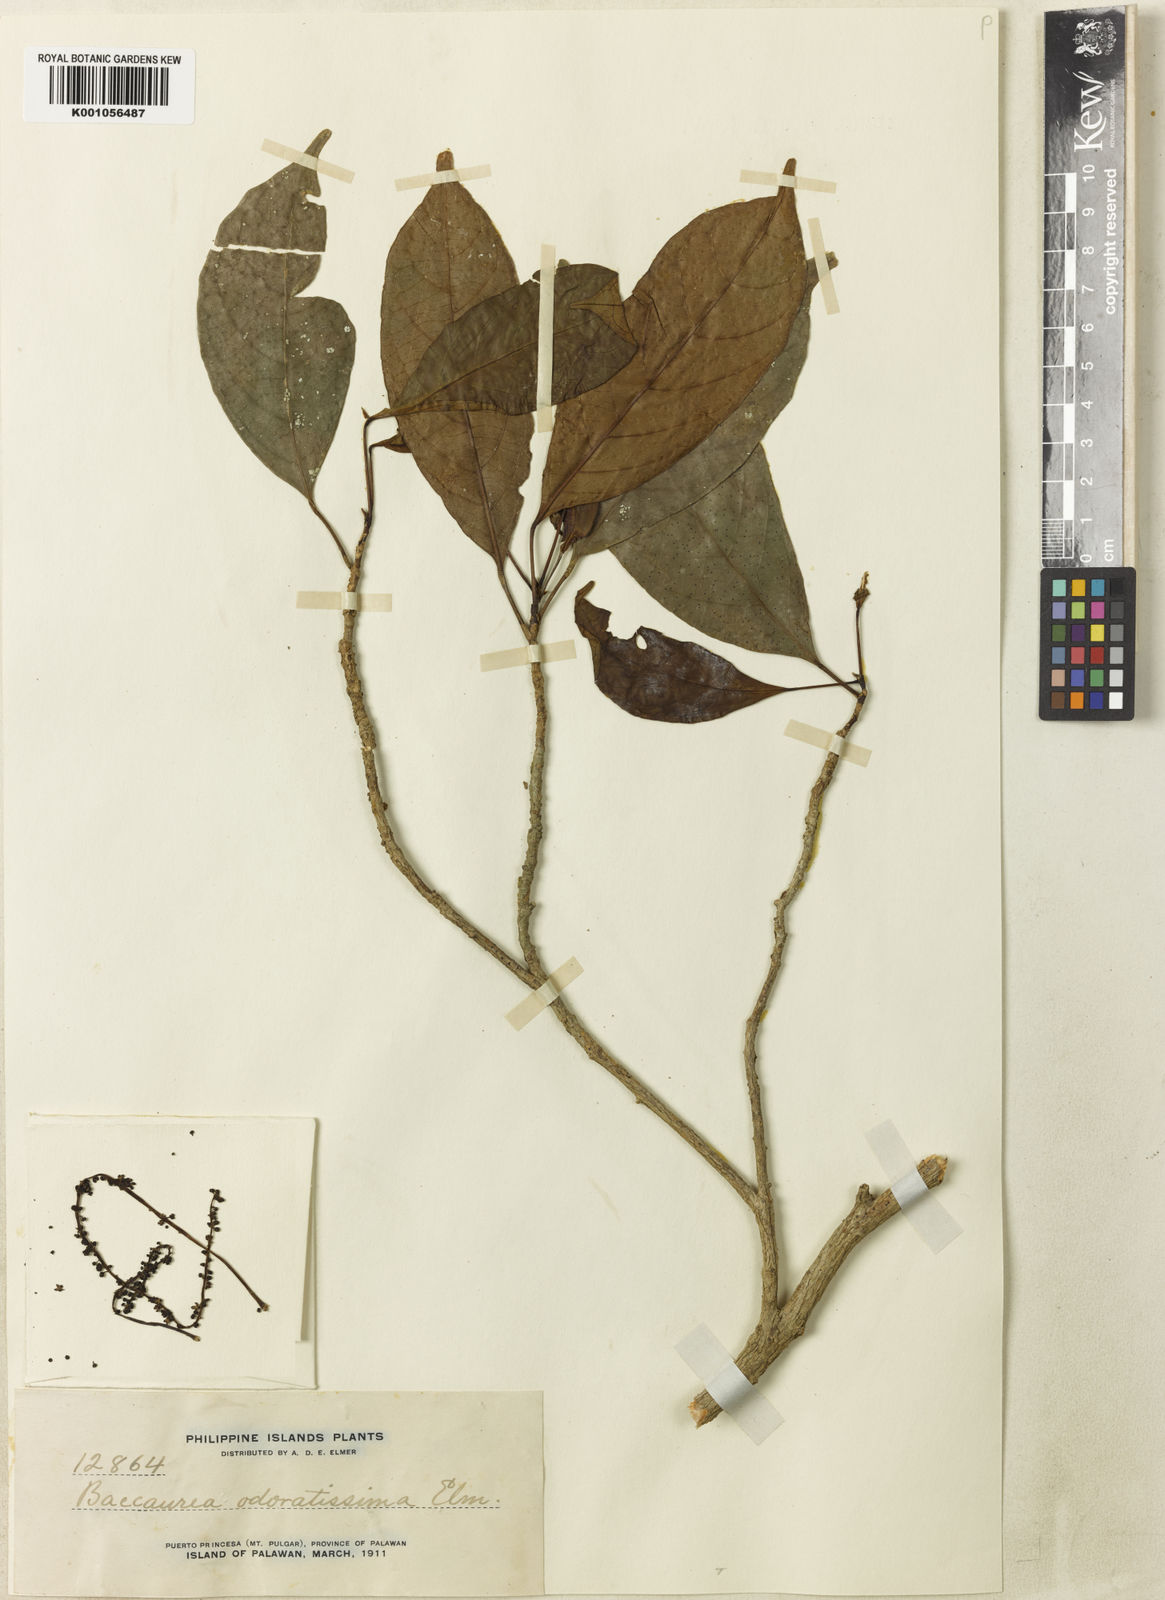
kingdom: Plantae
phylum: Tracheophyta
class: Magnoliopsida
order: Malpighiales
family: Phyllanthaceae
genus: Baccaurea
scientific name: Baccaurea
